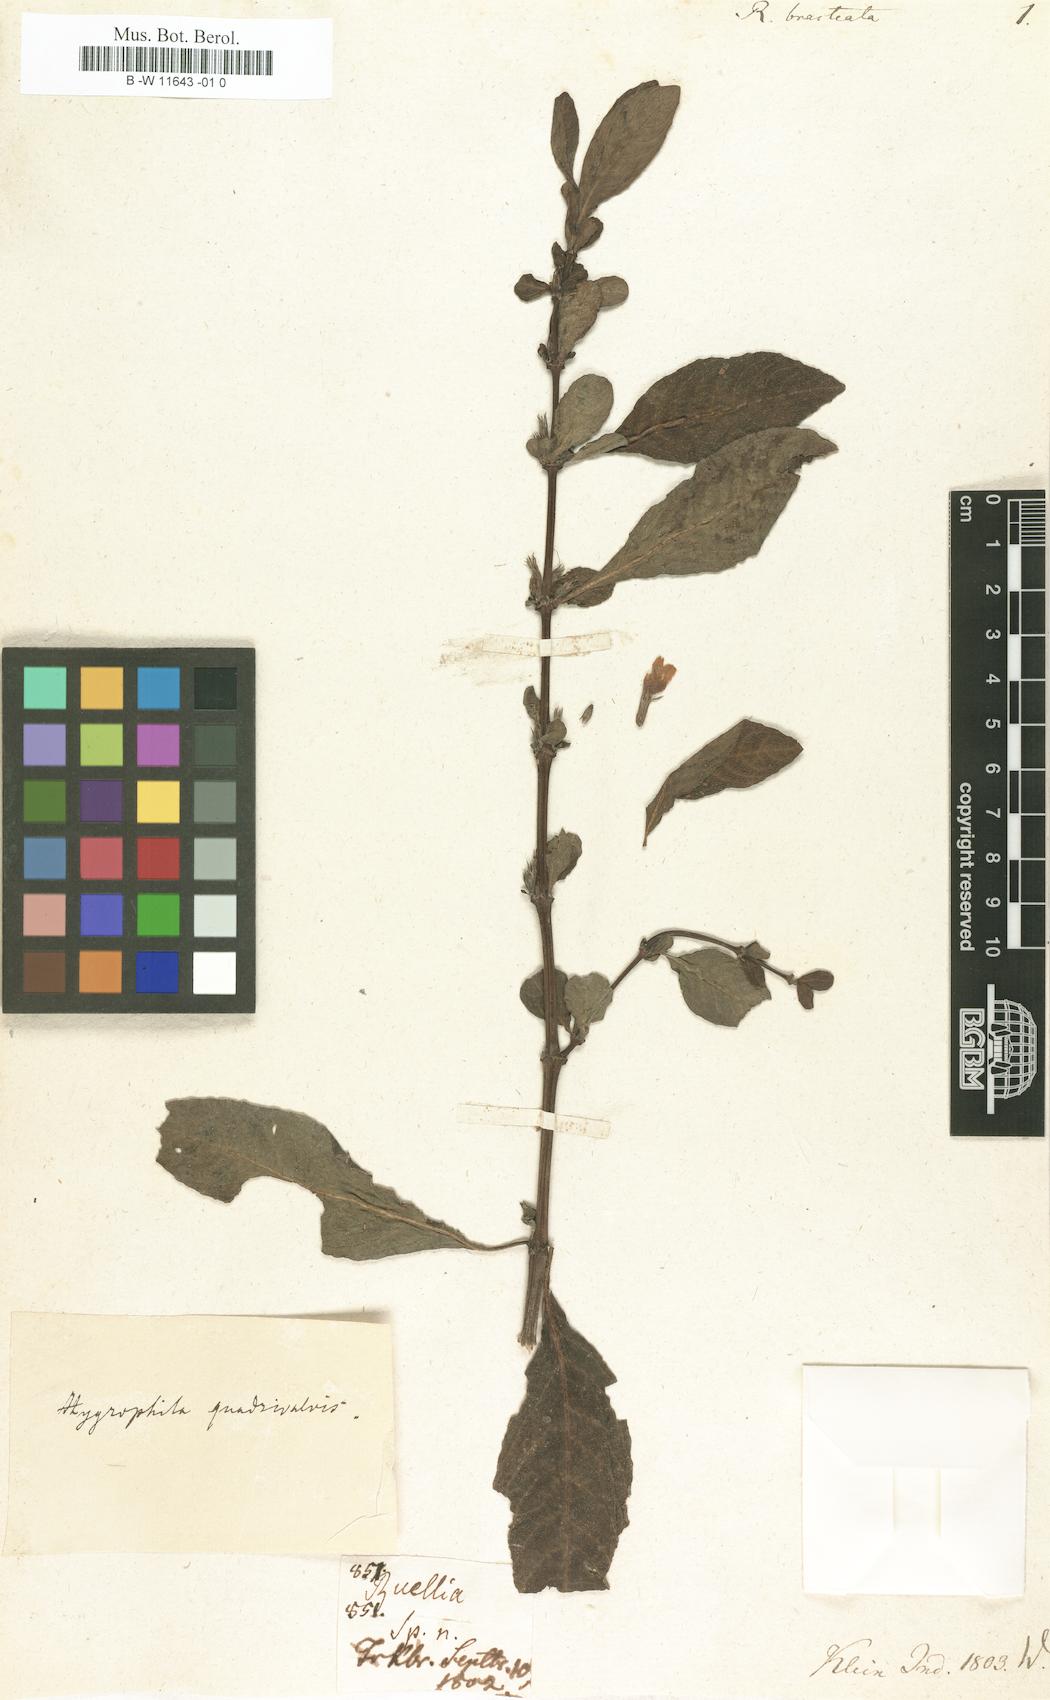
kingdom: Plantae
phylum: Tracheophyta
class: Magnoliopsida
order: Lamiales
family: Acanthaceae
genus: Ruellia
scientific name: Ruellia bracteata
